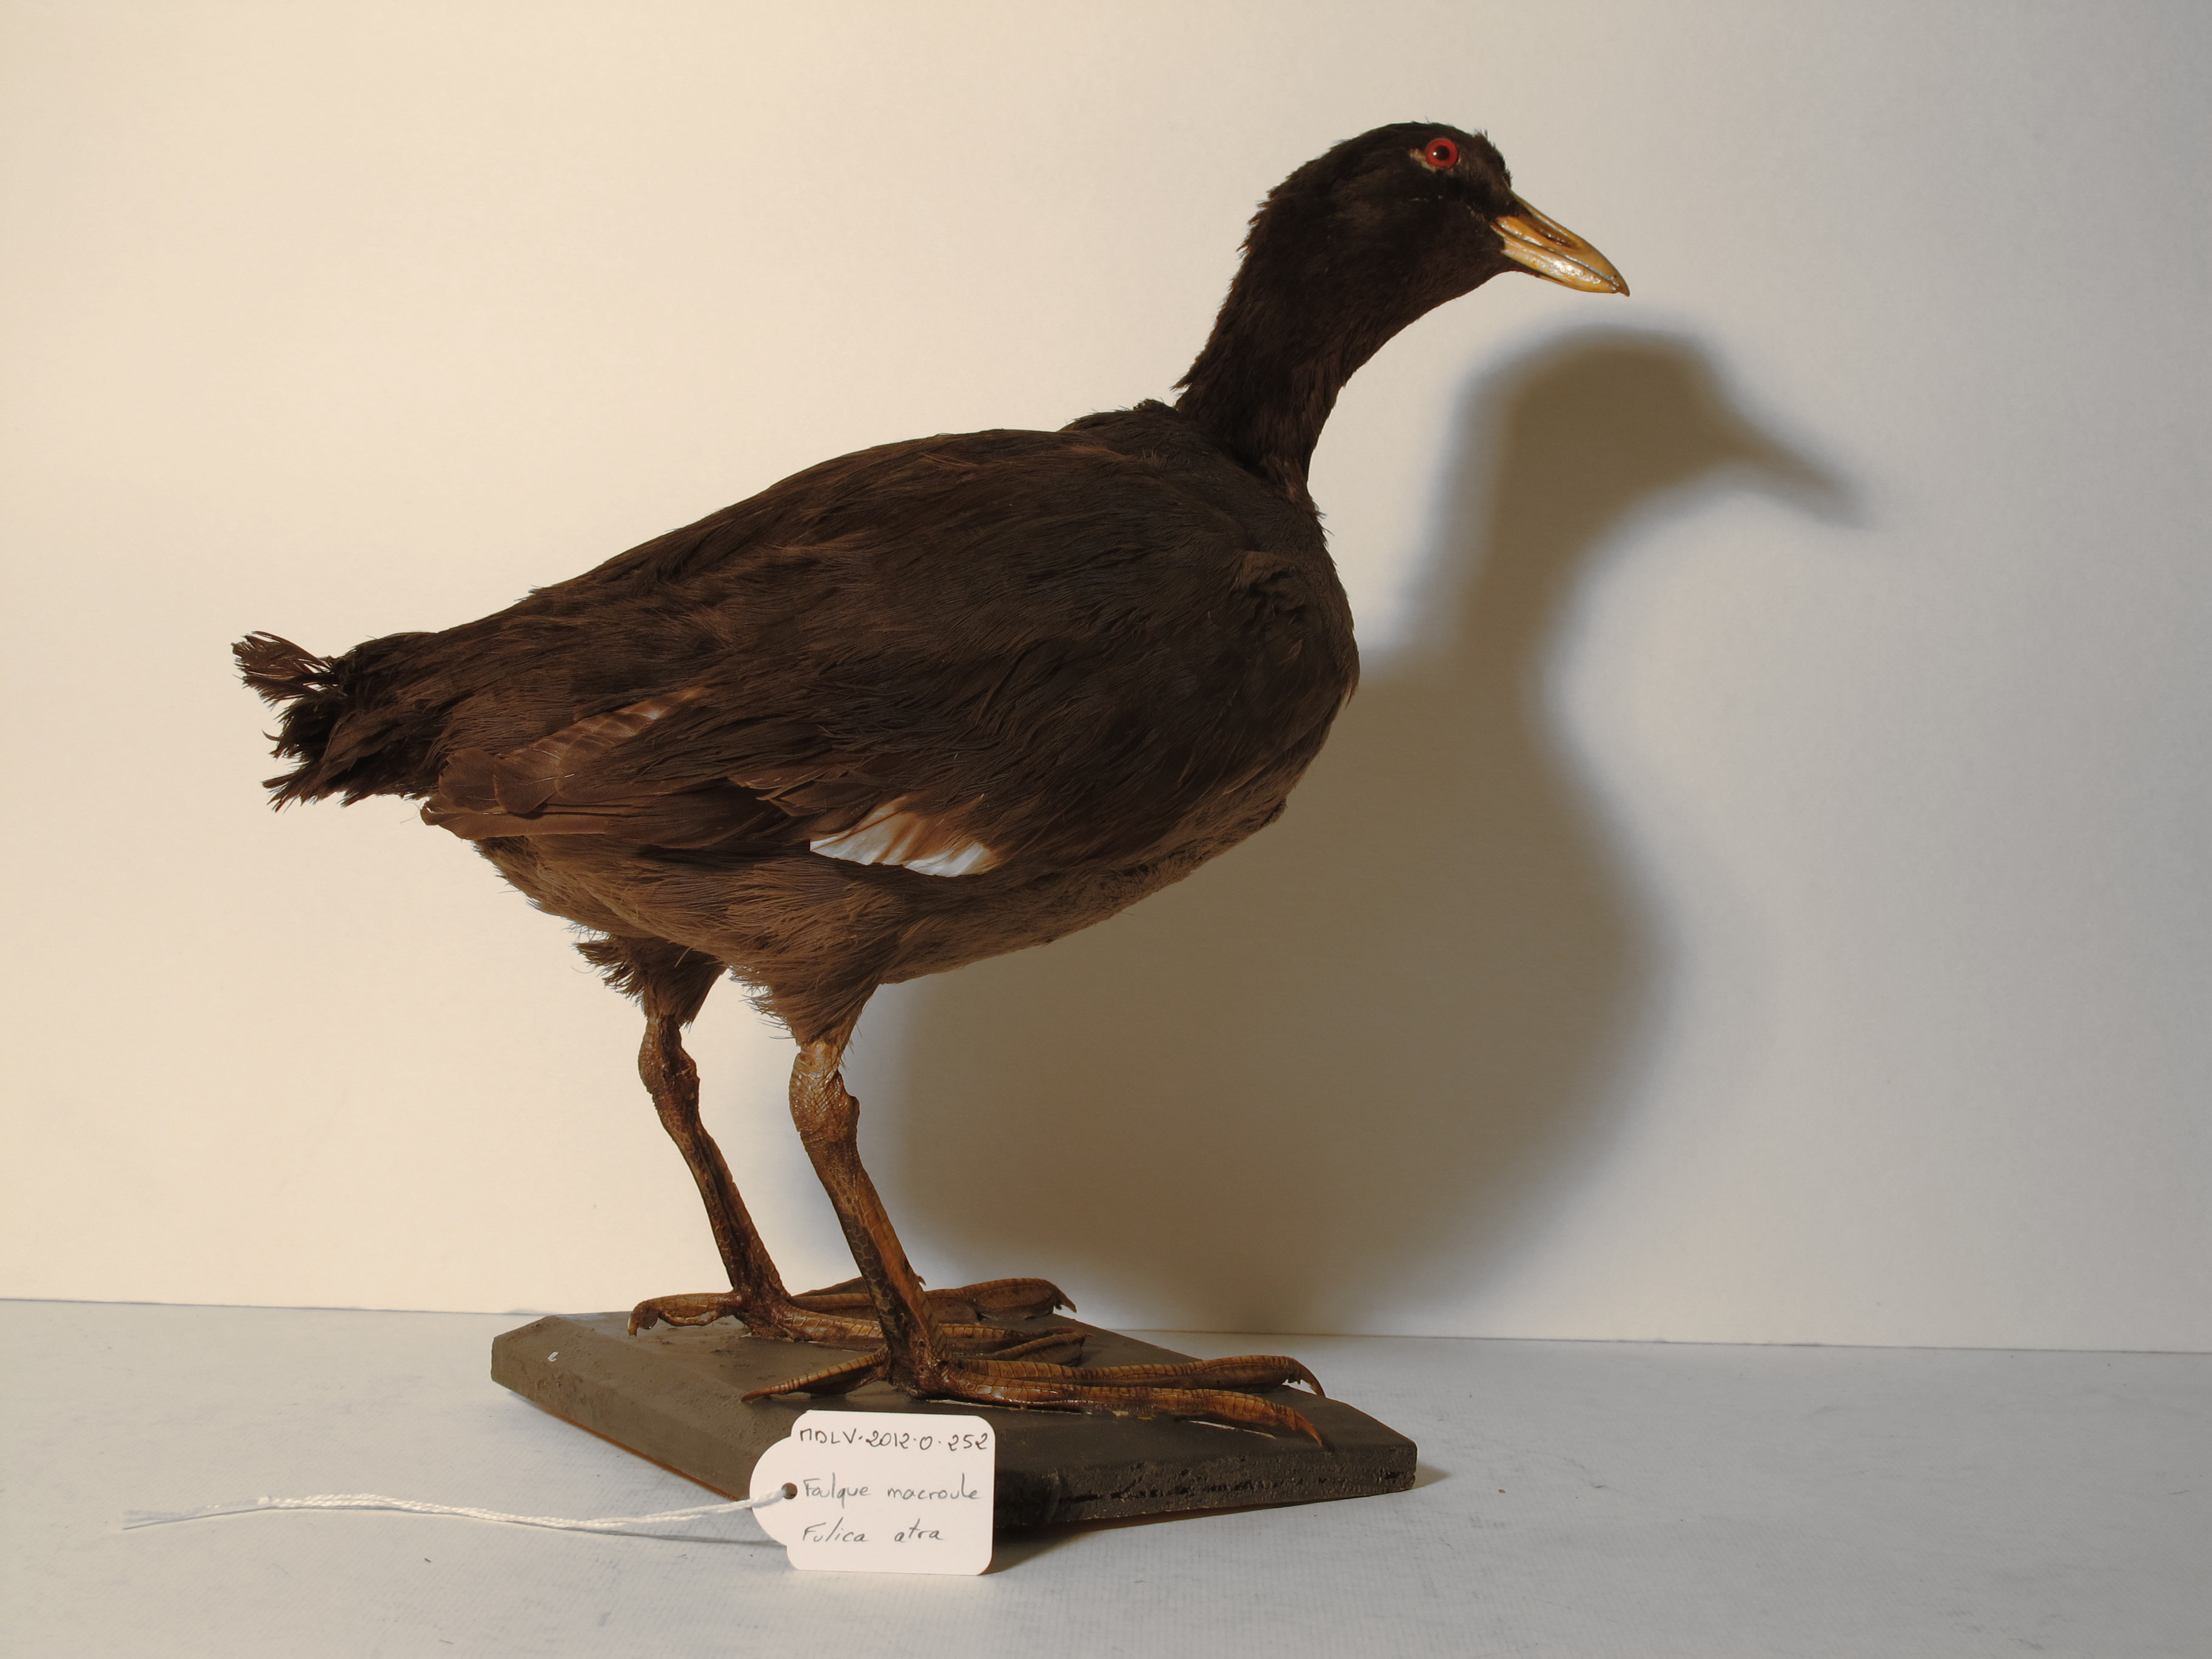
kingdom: Animalia
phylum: Chordata
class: Aves
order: Gruiformes
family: Rallidae
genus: Fulica
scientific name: Fulica atra
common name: Common Coot
